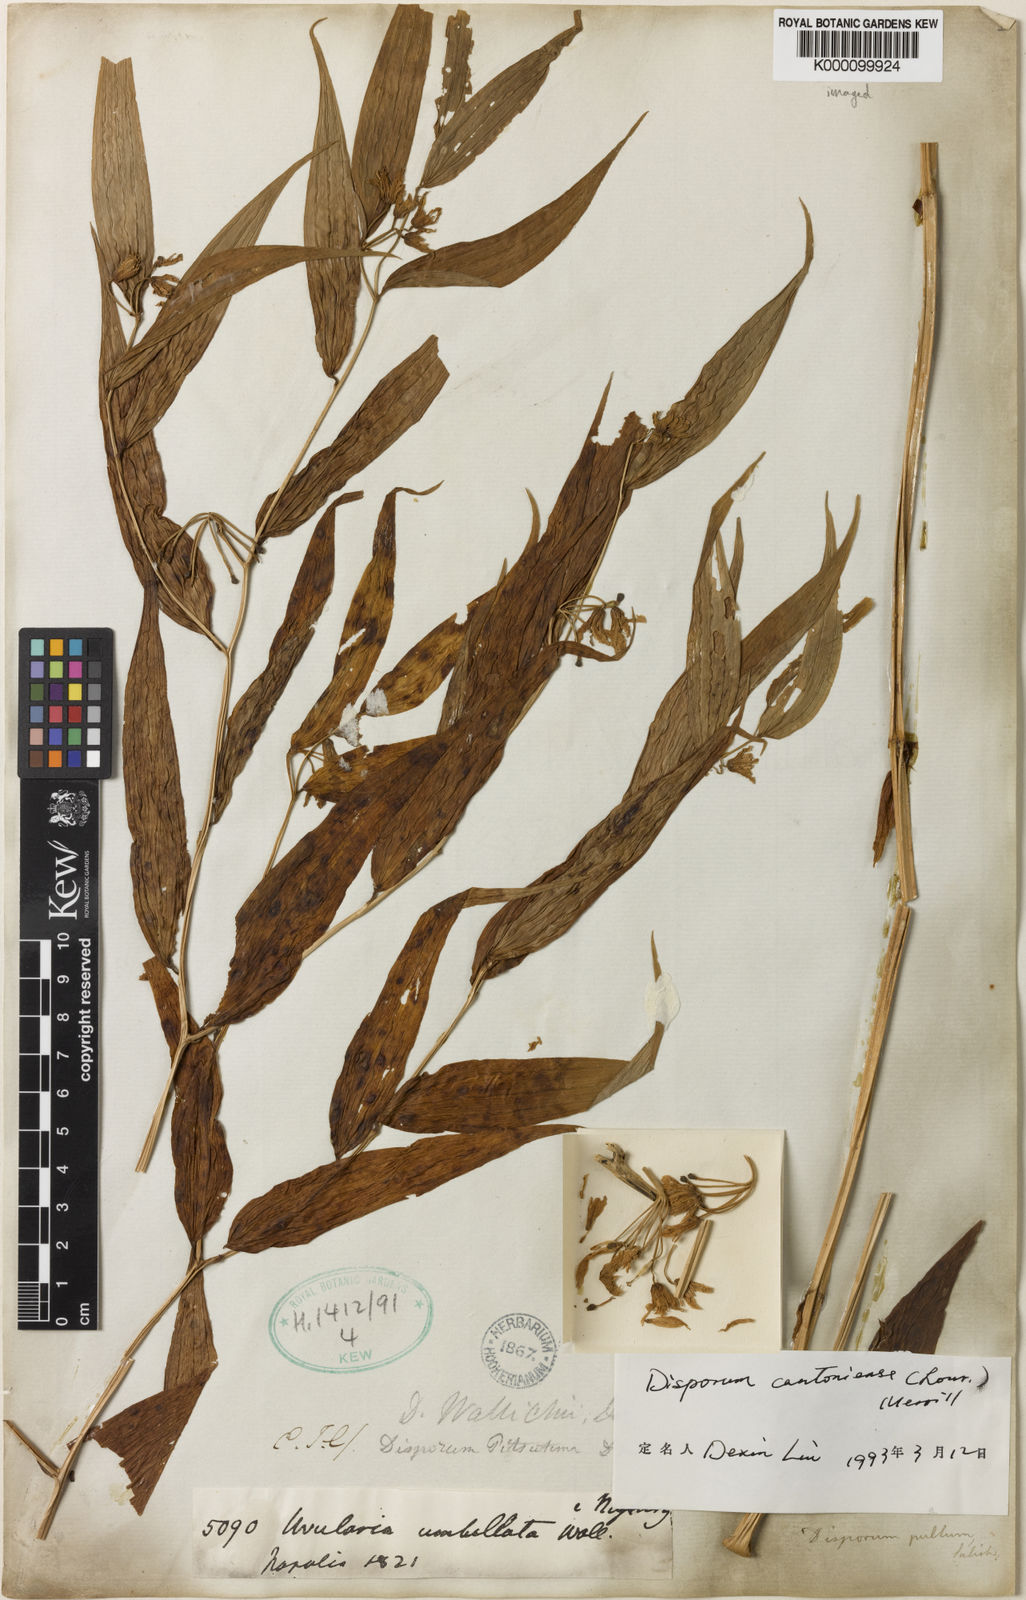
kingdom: Plantae
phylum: Tracheophyta
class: Liliopsida
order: Liliales
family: Colchicaceae
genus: Disporum
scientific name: Disporum cantoniense
